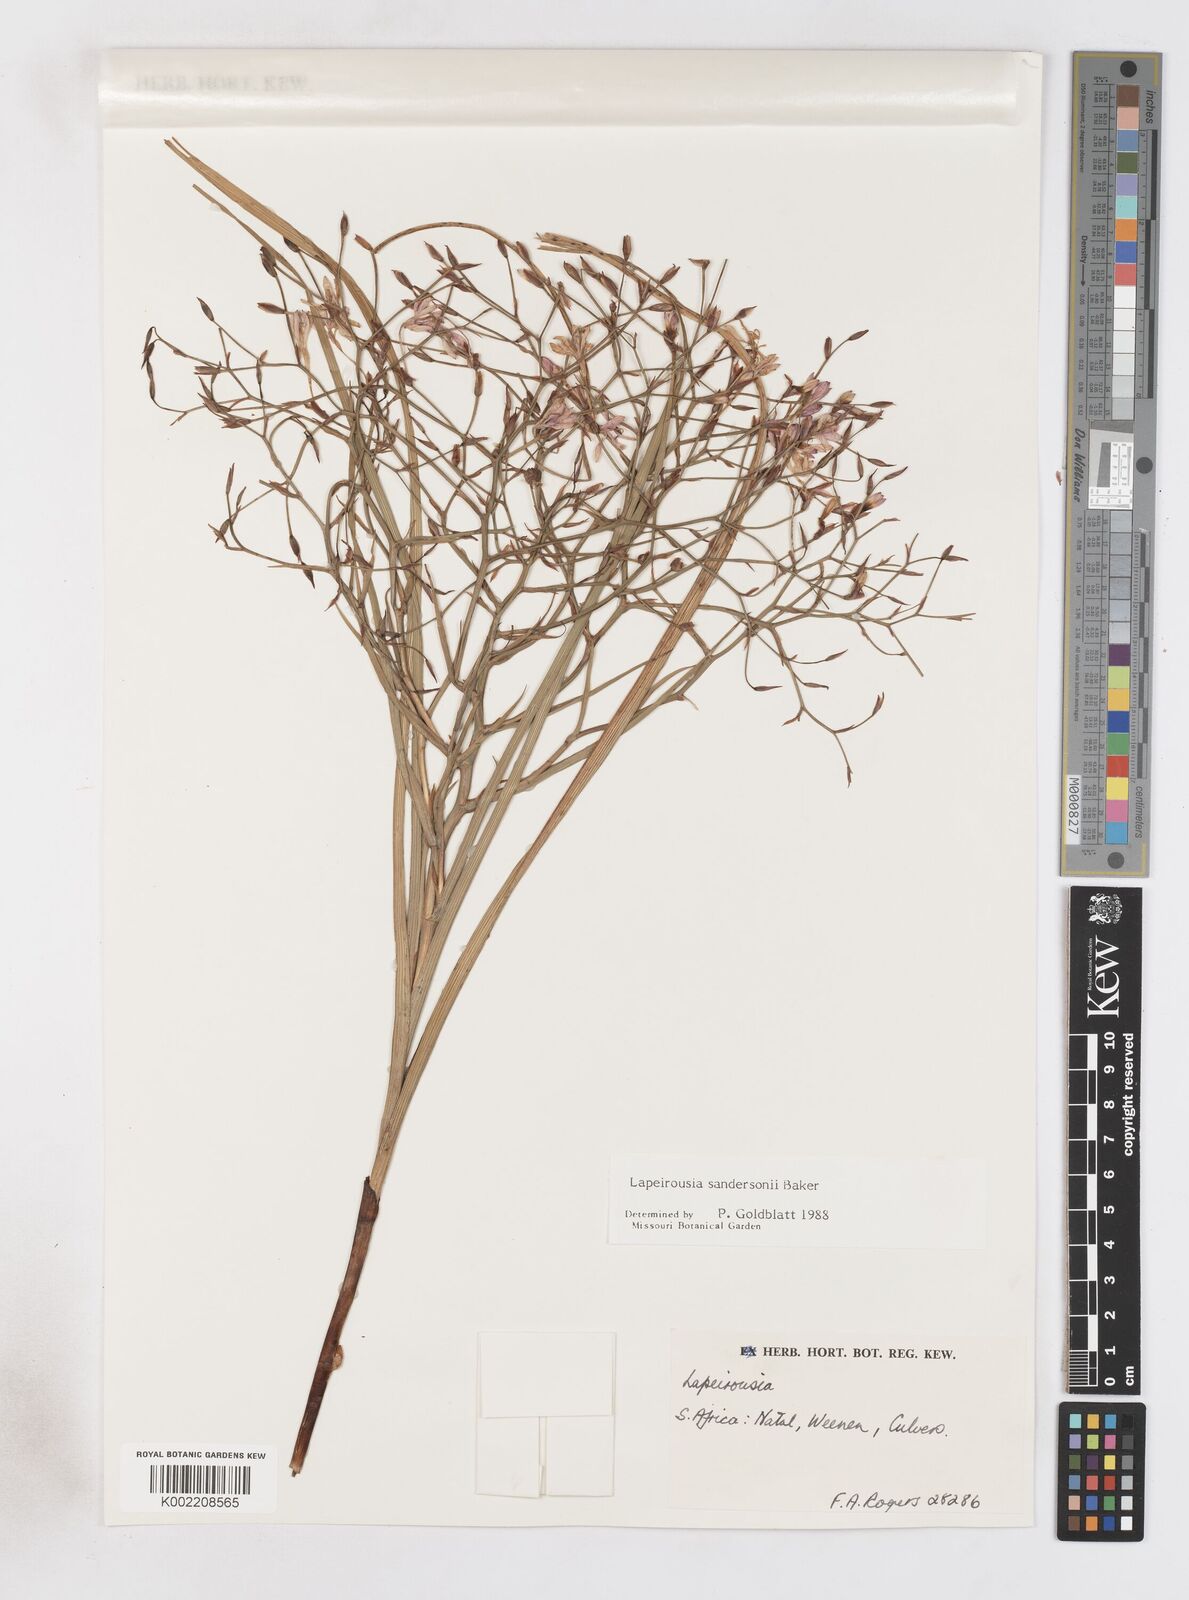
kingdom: Plantae
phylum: Tracheophyta
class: Liliopsida
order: Asparagales
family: Iridaceae
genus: Afrosolen
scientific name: Afrosolen sandersonii
